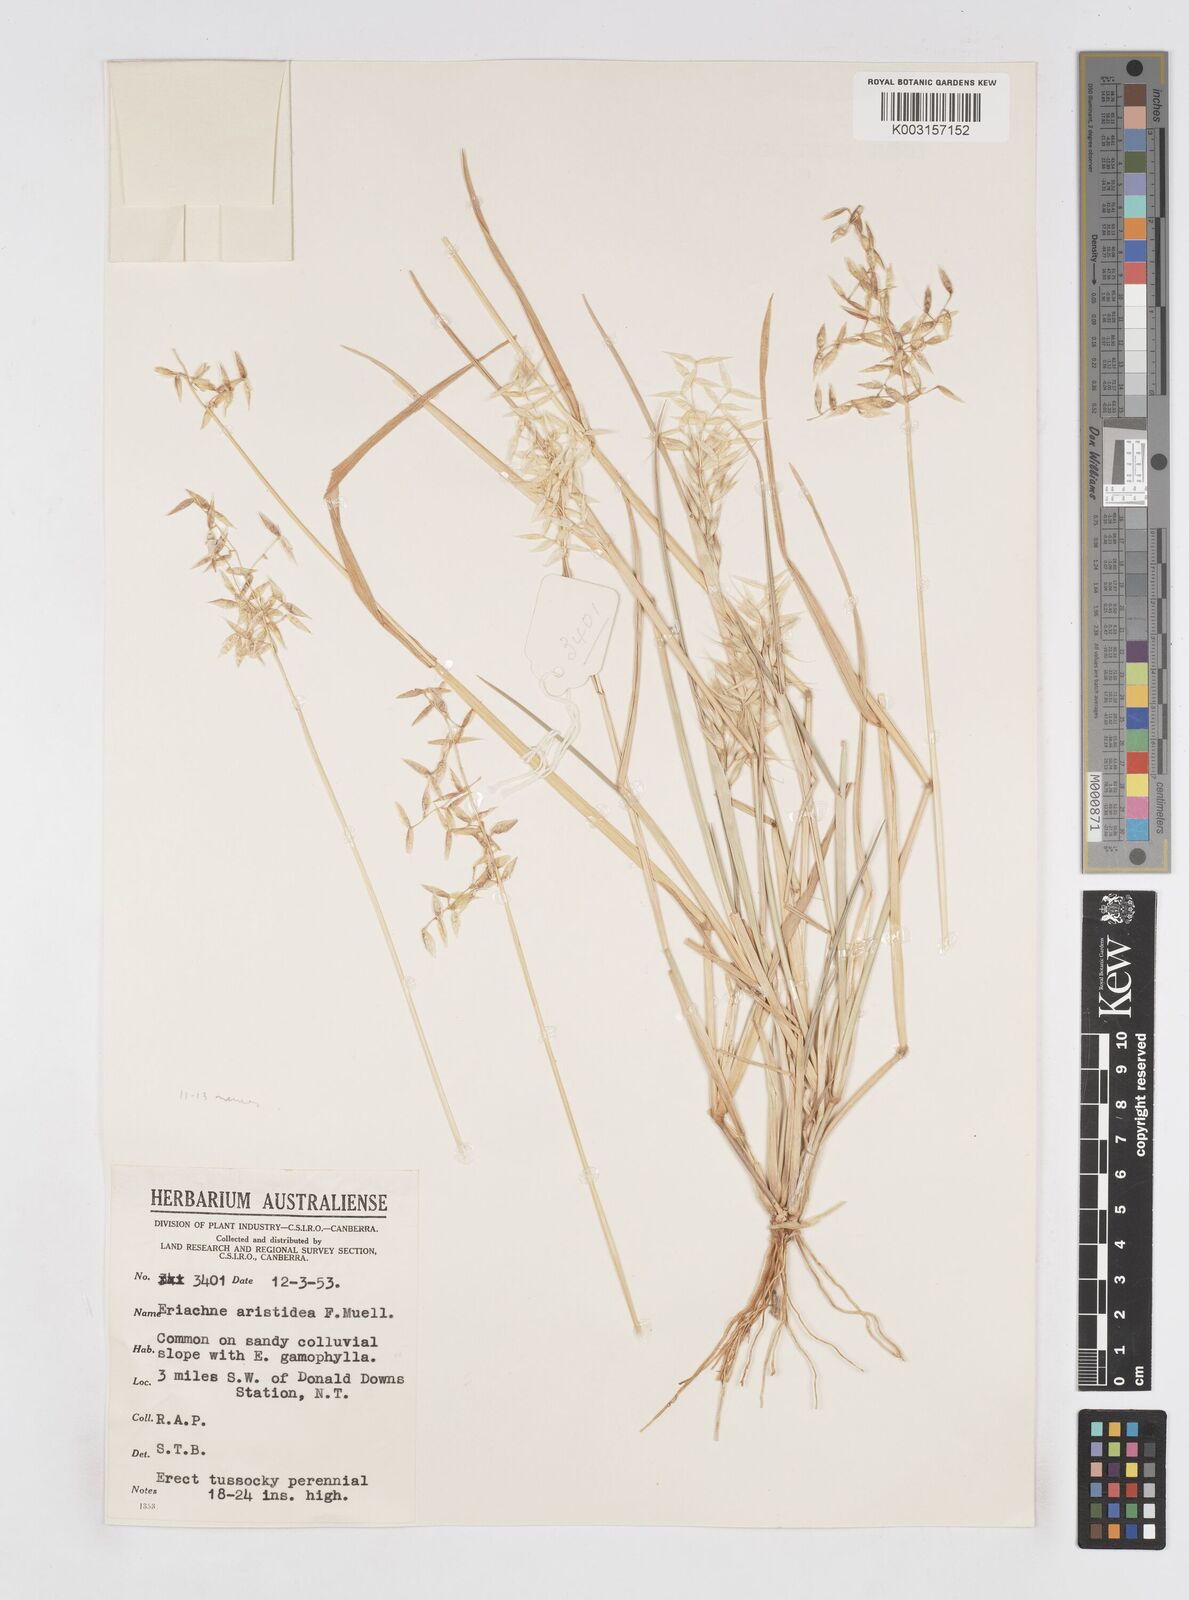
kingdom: Plantae
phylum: Tracheophyta
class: Liliopsida
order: Poales
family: Poaceae
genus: Eriachne
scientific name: Eriachne aristidea
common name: Three-awn wanderrie grass
